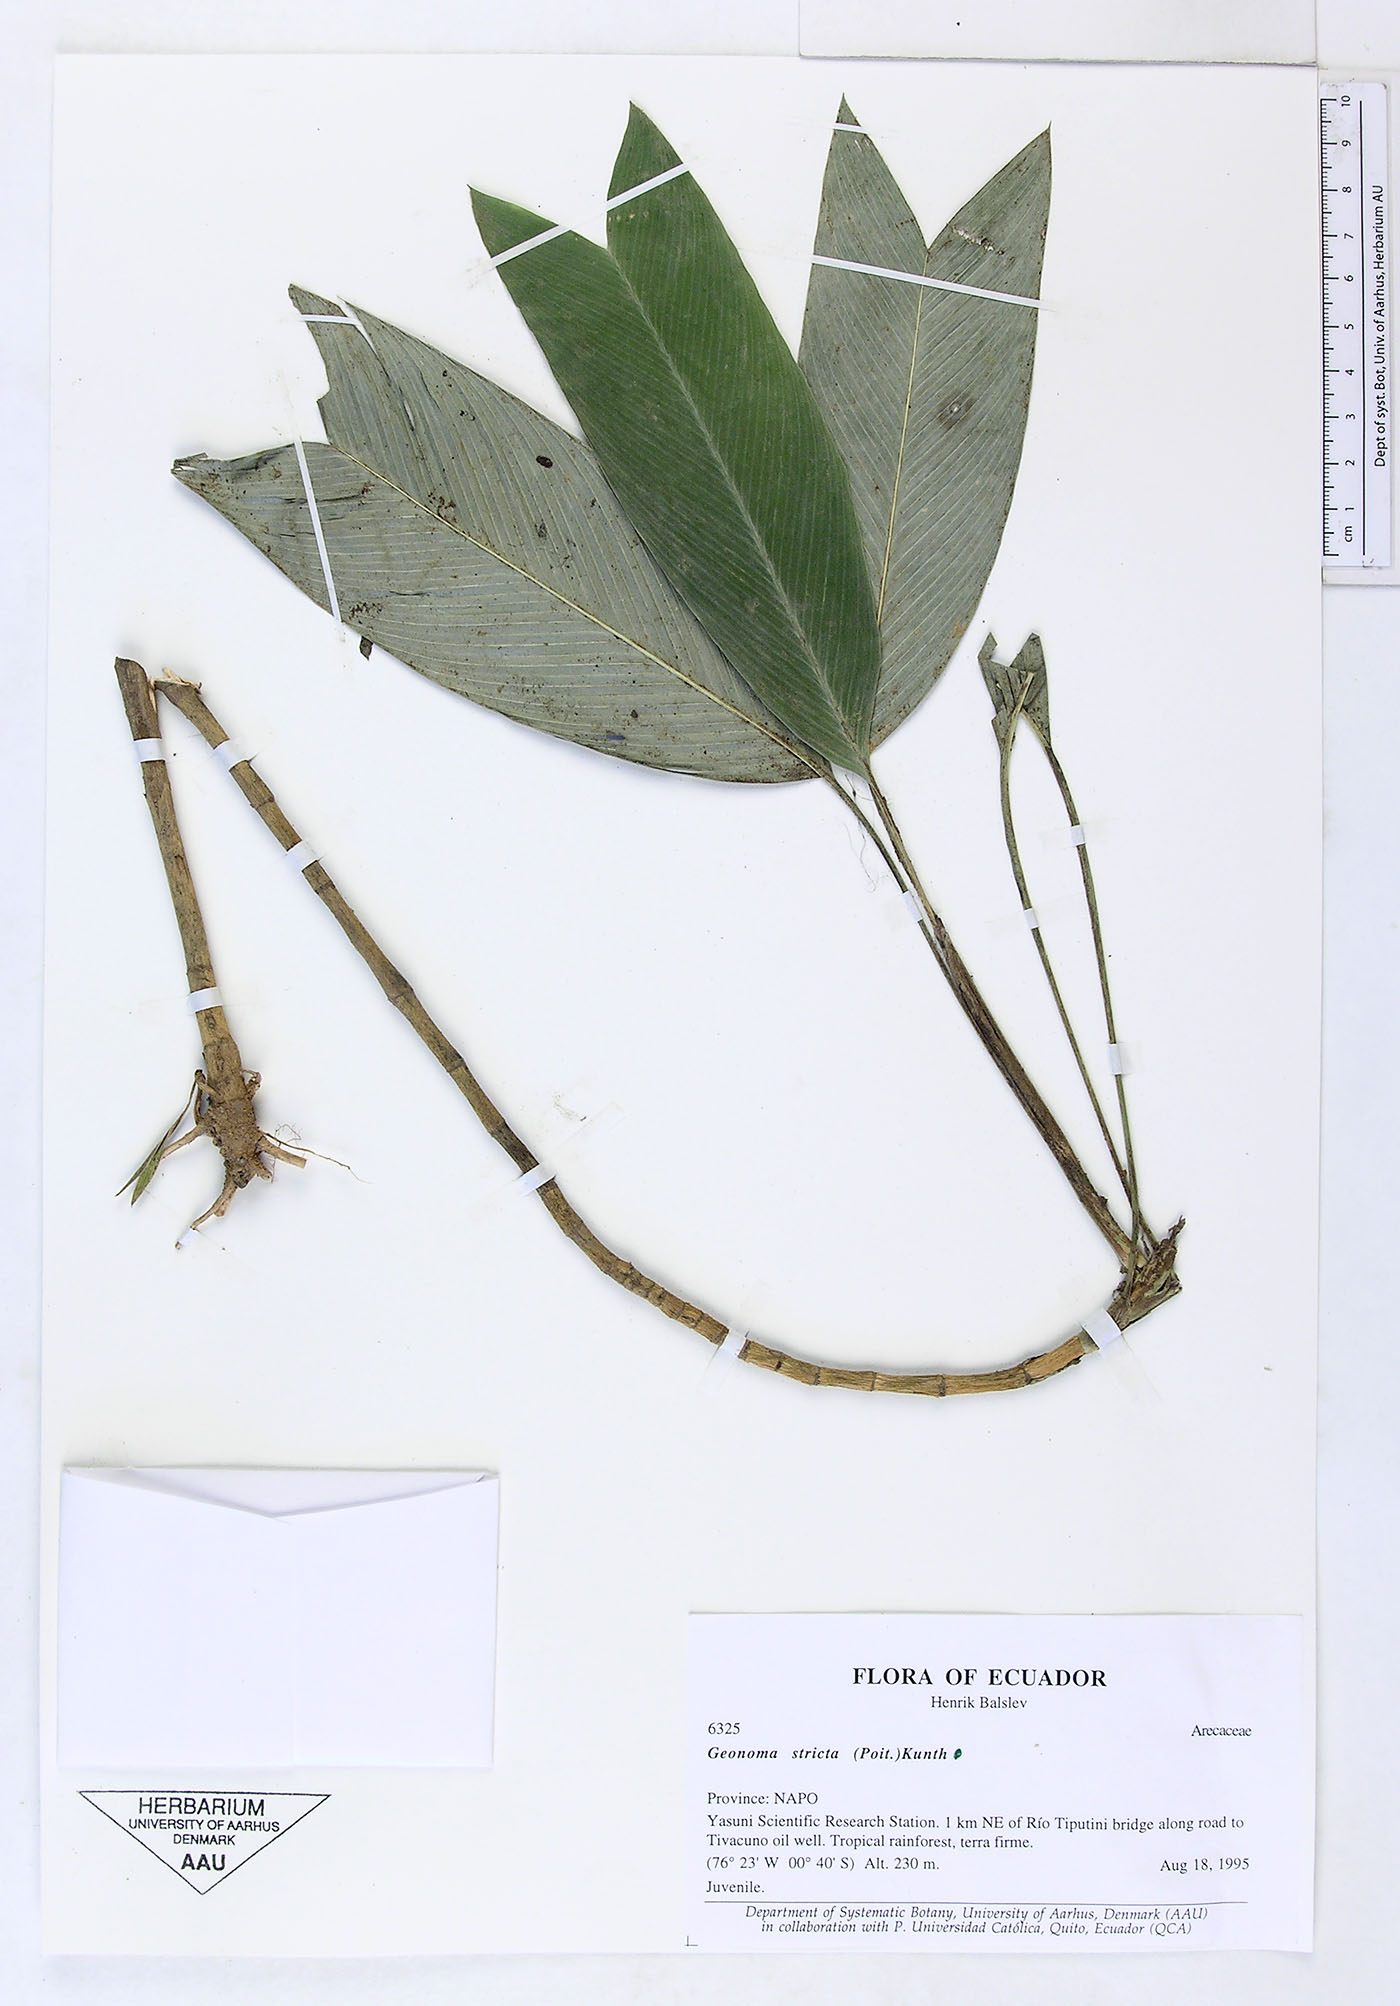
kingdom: Plantae
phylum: Tracheophyta
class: Liliopsida
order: Arecales
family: Arecaceae
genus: Geonoma
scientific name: Geonoma stricta
